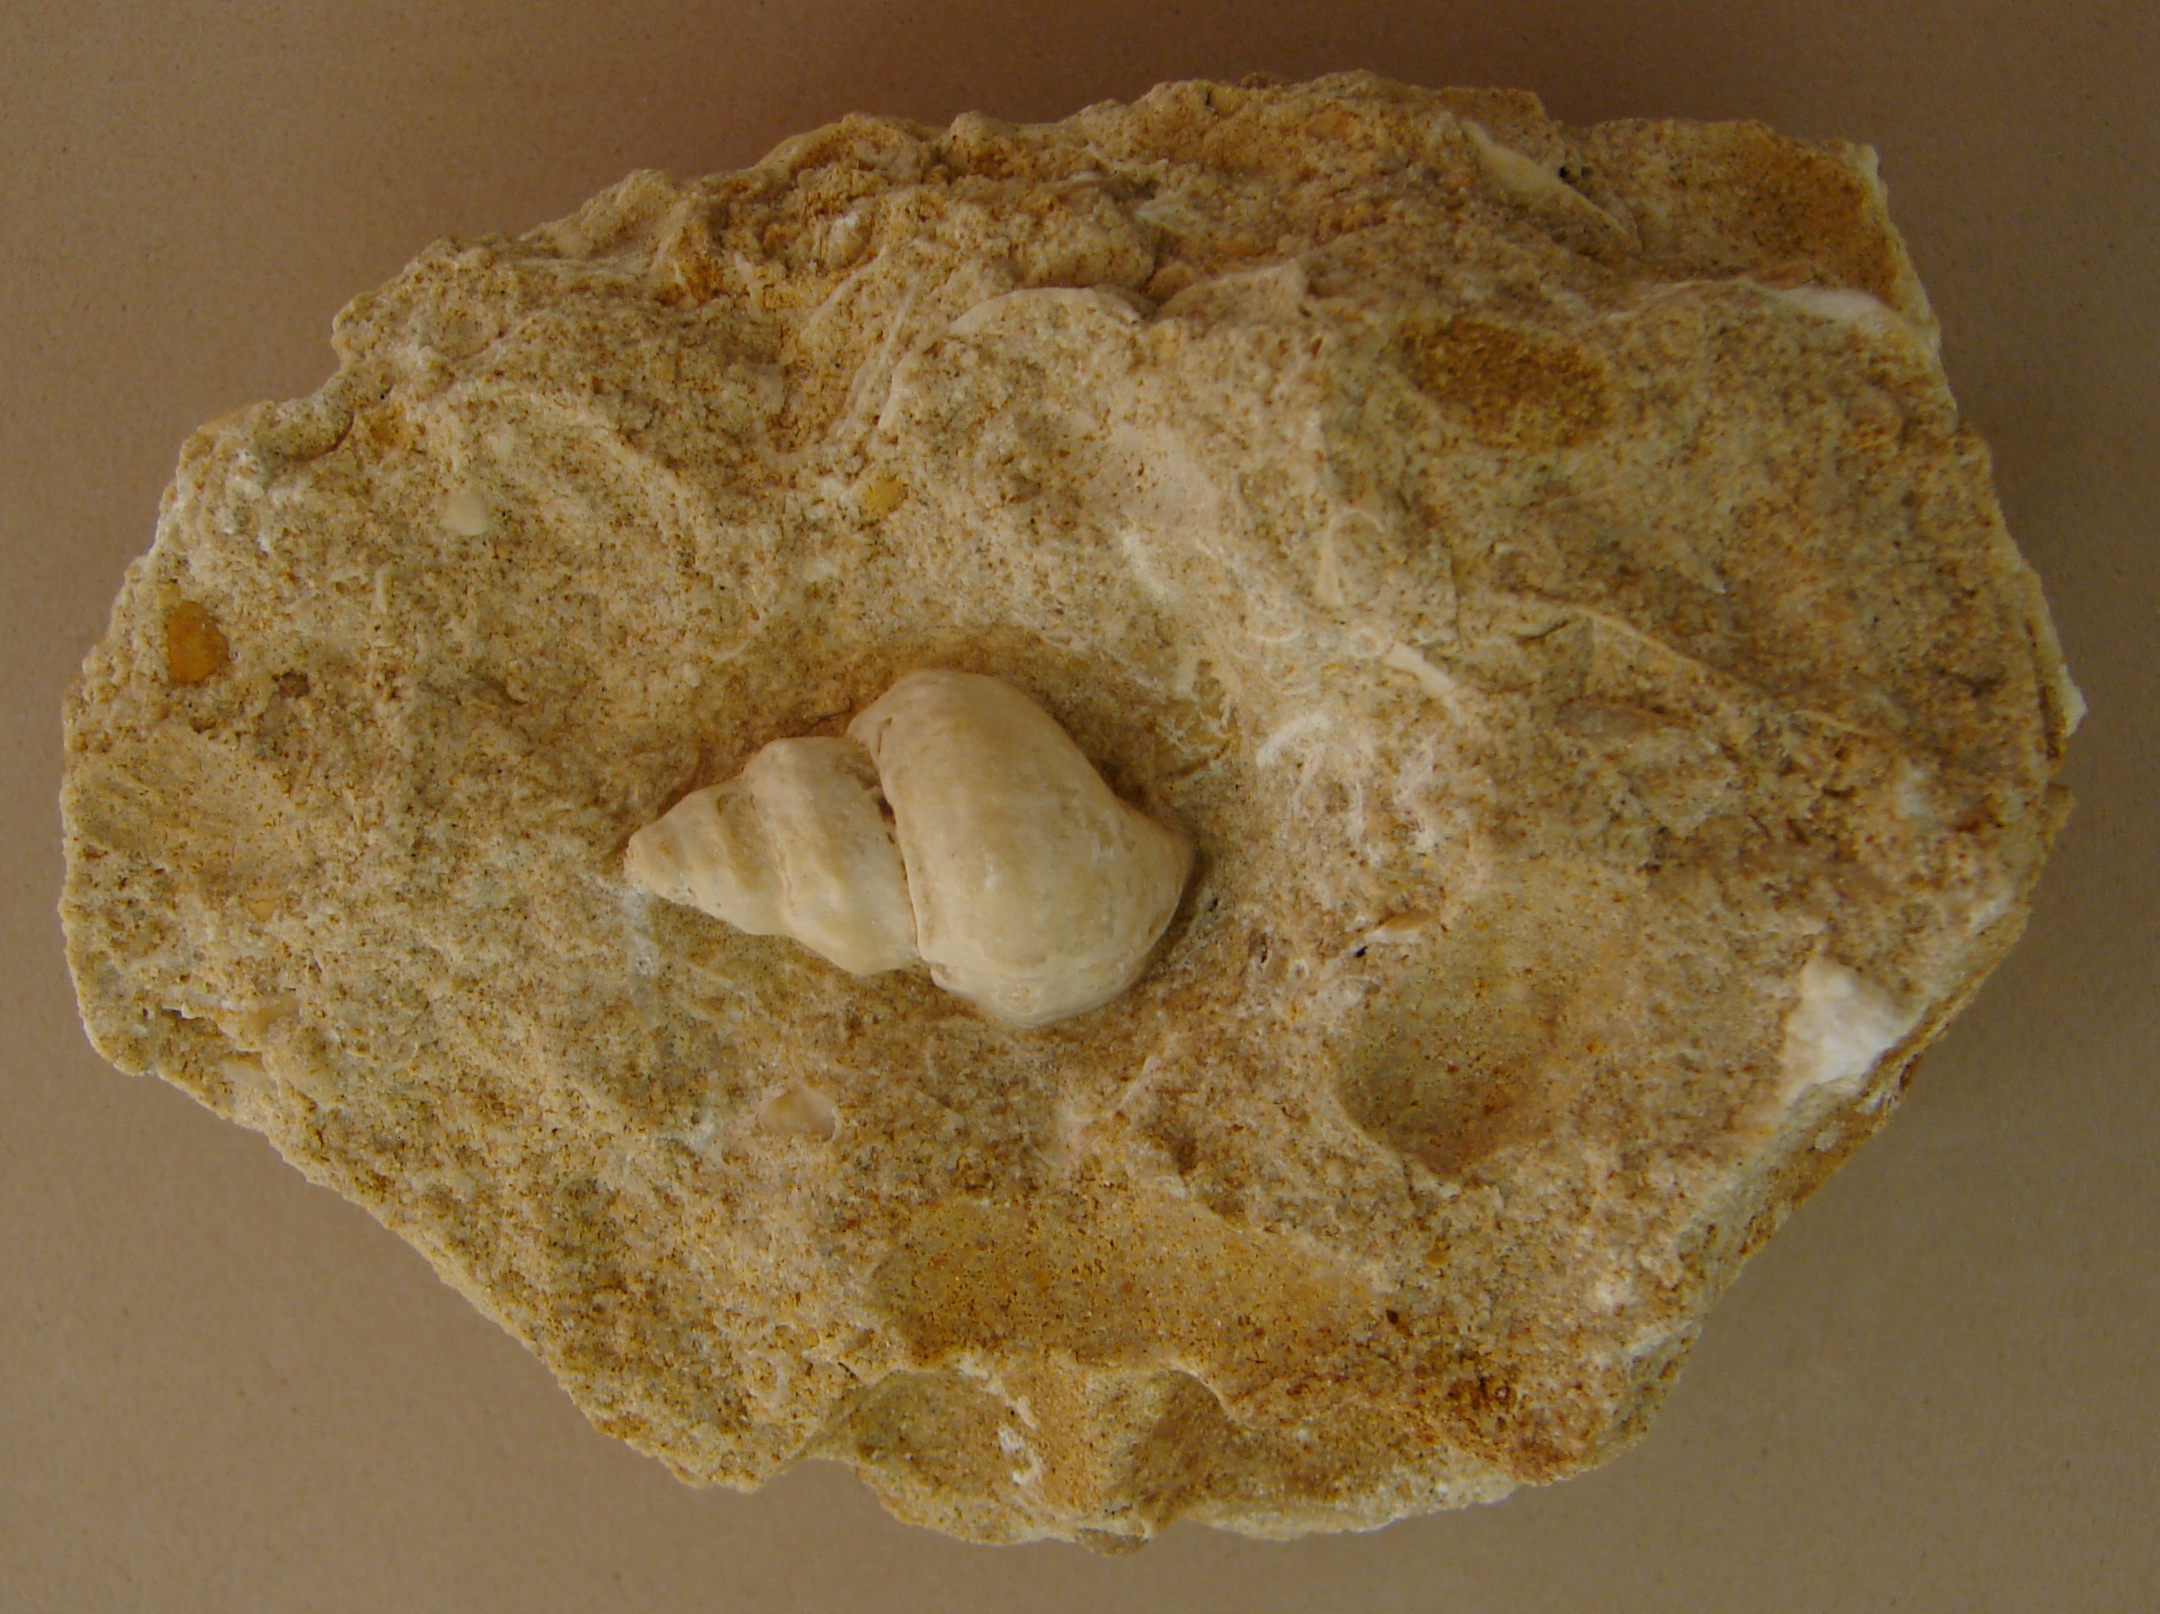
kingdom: Animalia
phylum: Mollusca
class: Gastropoda
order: Neogastropoda
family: Purpurinidae
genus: Microschiza
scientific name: Microschiza
